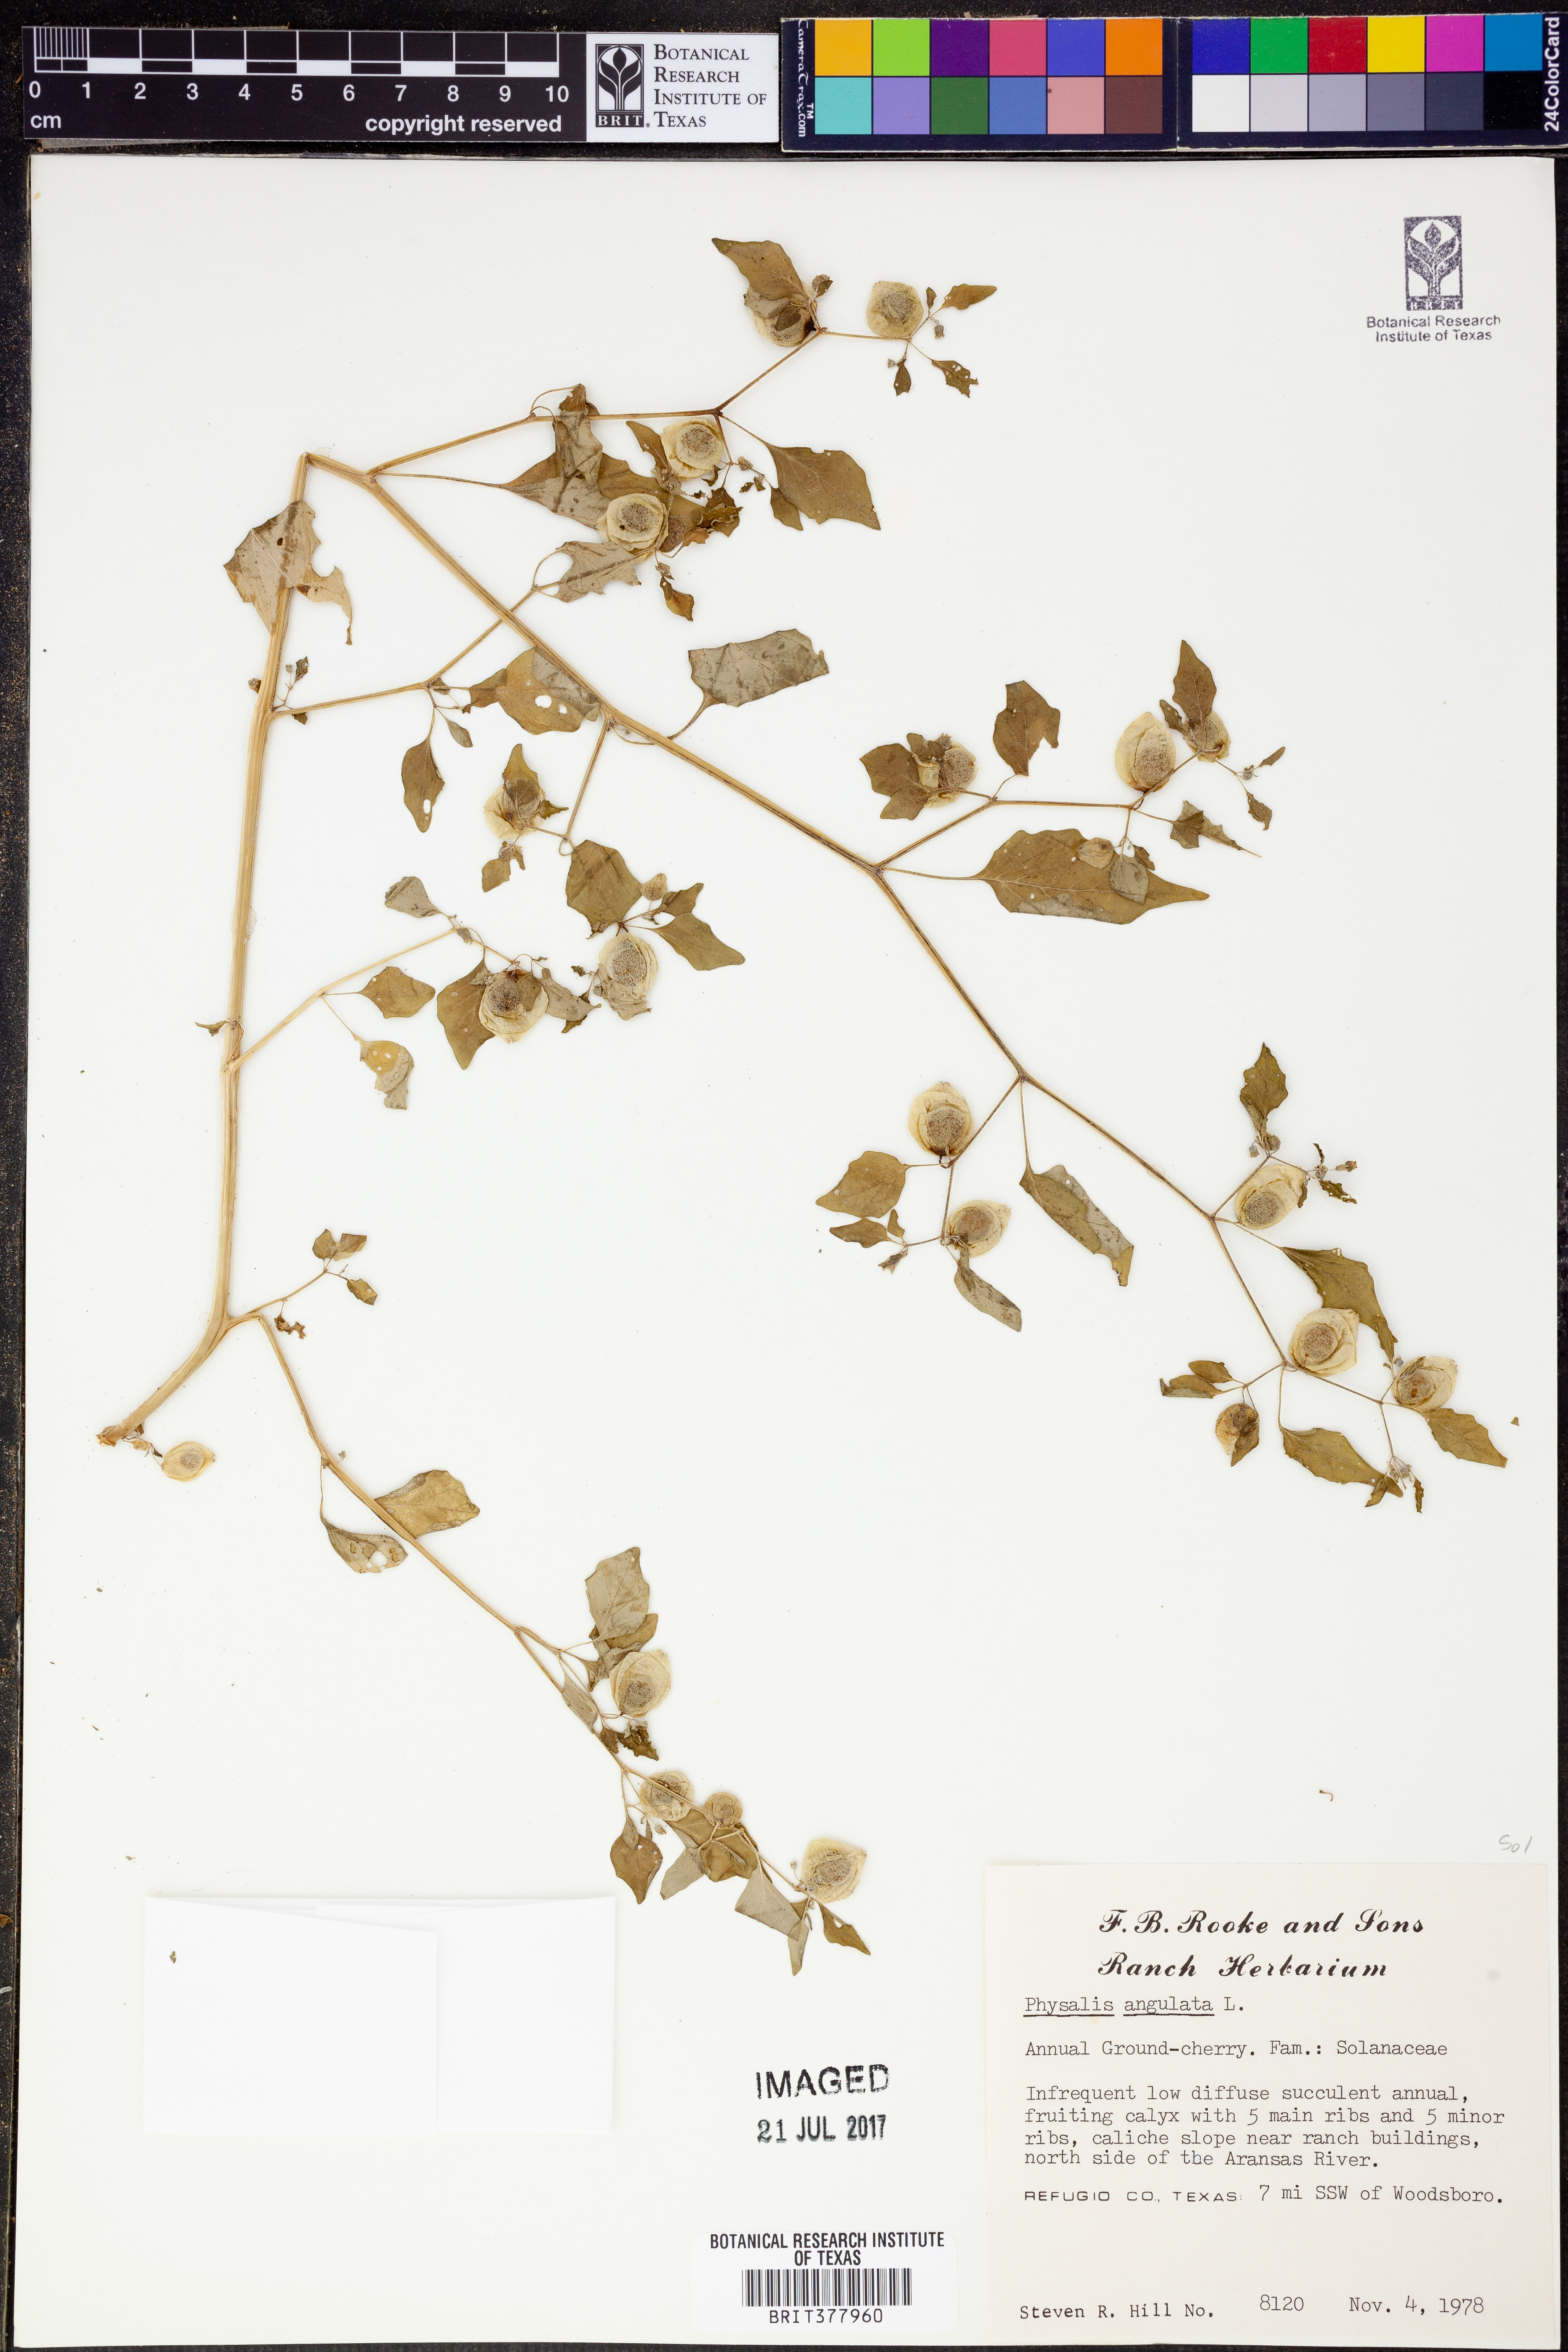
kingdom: Plantae
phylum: Tracheophyta
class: Magnoliopsida
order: Solanales
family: Solanaceae
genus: Physalis
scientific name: Physalis angulata
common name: Angular winter-cherry
